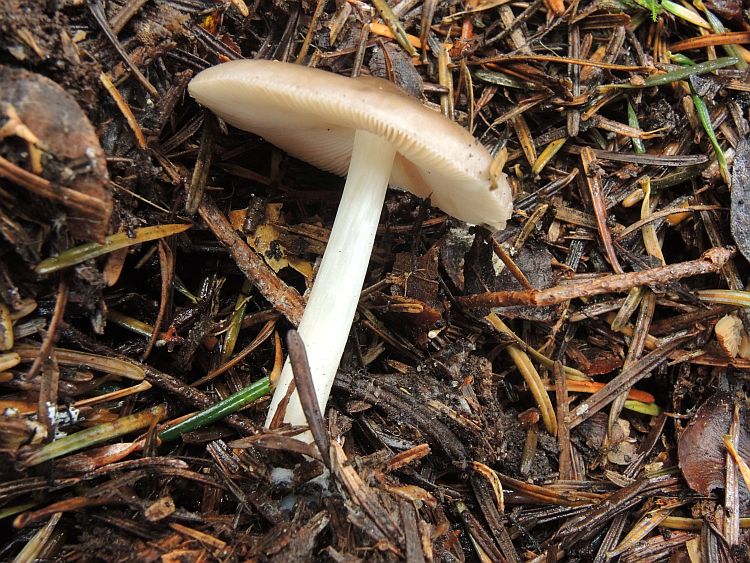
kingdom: Fungi
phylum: Basidiomycota
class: Agaricomycetes
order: Agaricales
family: Pluteaceae
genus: Pluteus
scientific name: Pluteus primus
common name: tidlig skærmhat
